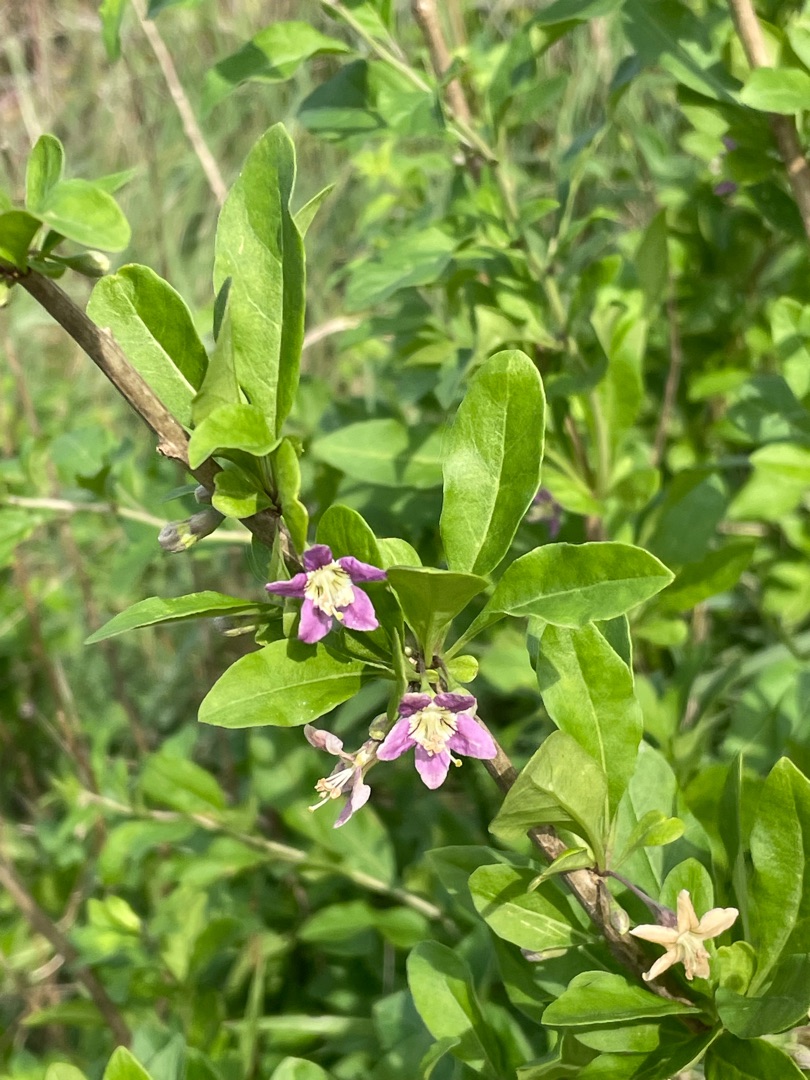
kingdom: Plantae
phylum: Tracheophyta
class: Magnoliopsida
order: Solanales
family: Solanaceae
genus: Lycium
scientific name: Lycium barbarum
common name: Bukketorn
